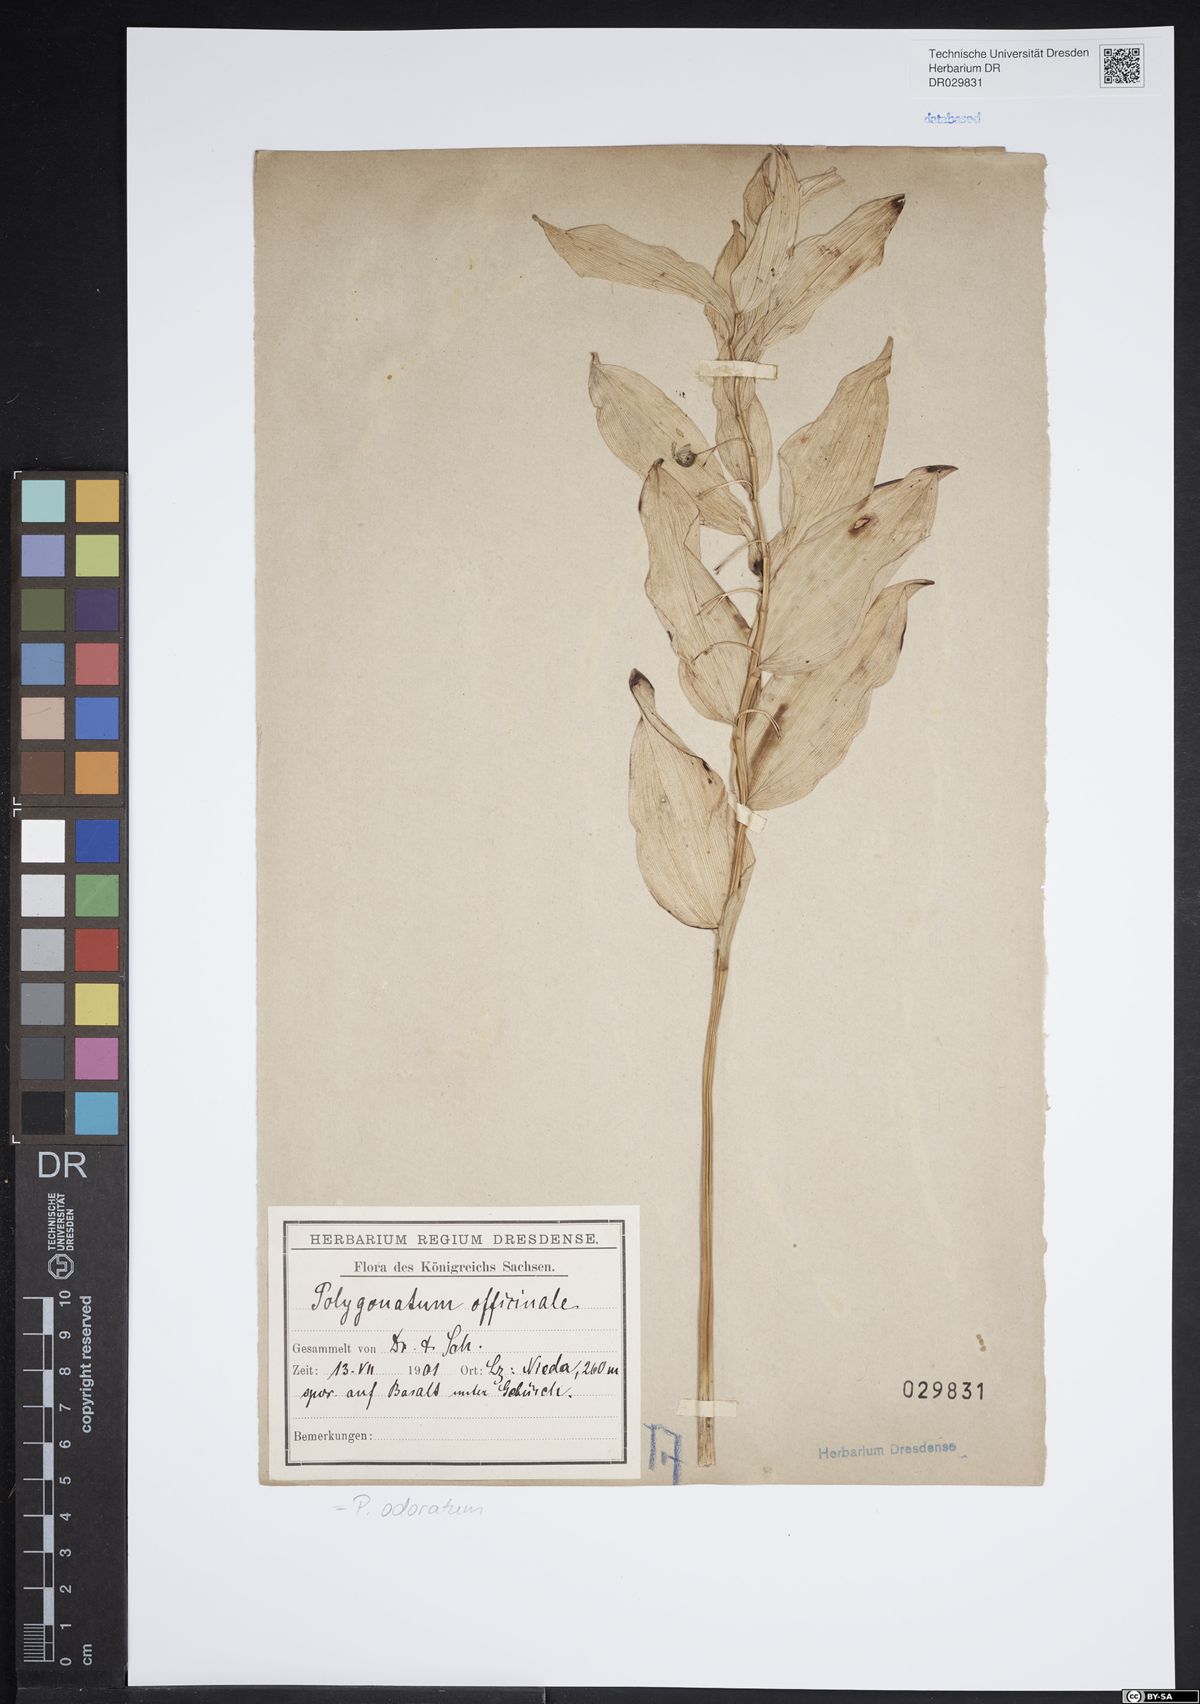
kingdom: Plantae
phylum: Tracheophyta
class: Liliopsida
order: Asparagales
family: Asparagaceae
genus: Polygonatum
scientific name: Polygonatum odoratum
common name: Angular solomon's-seal
